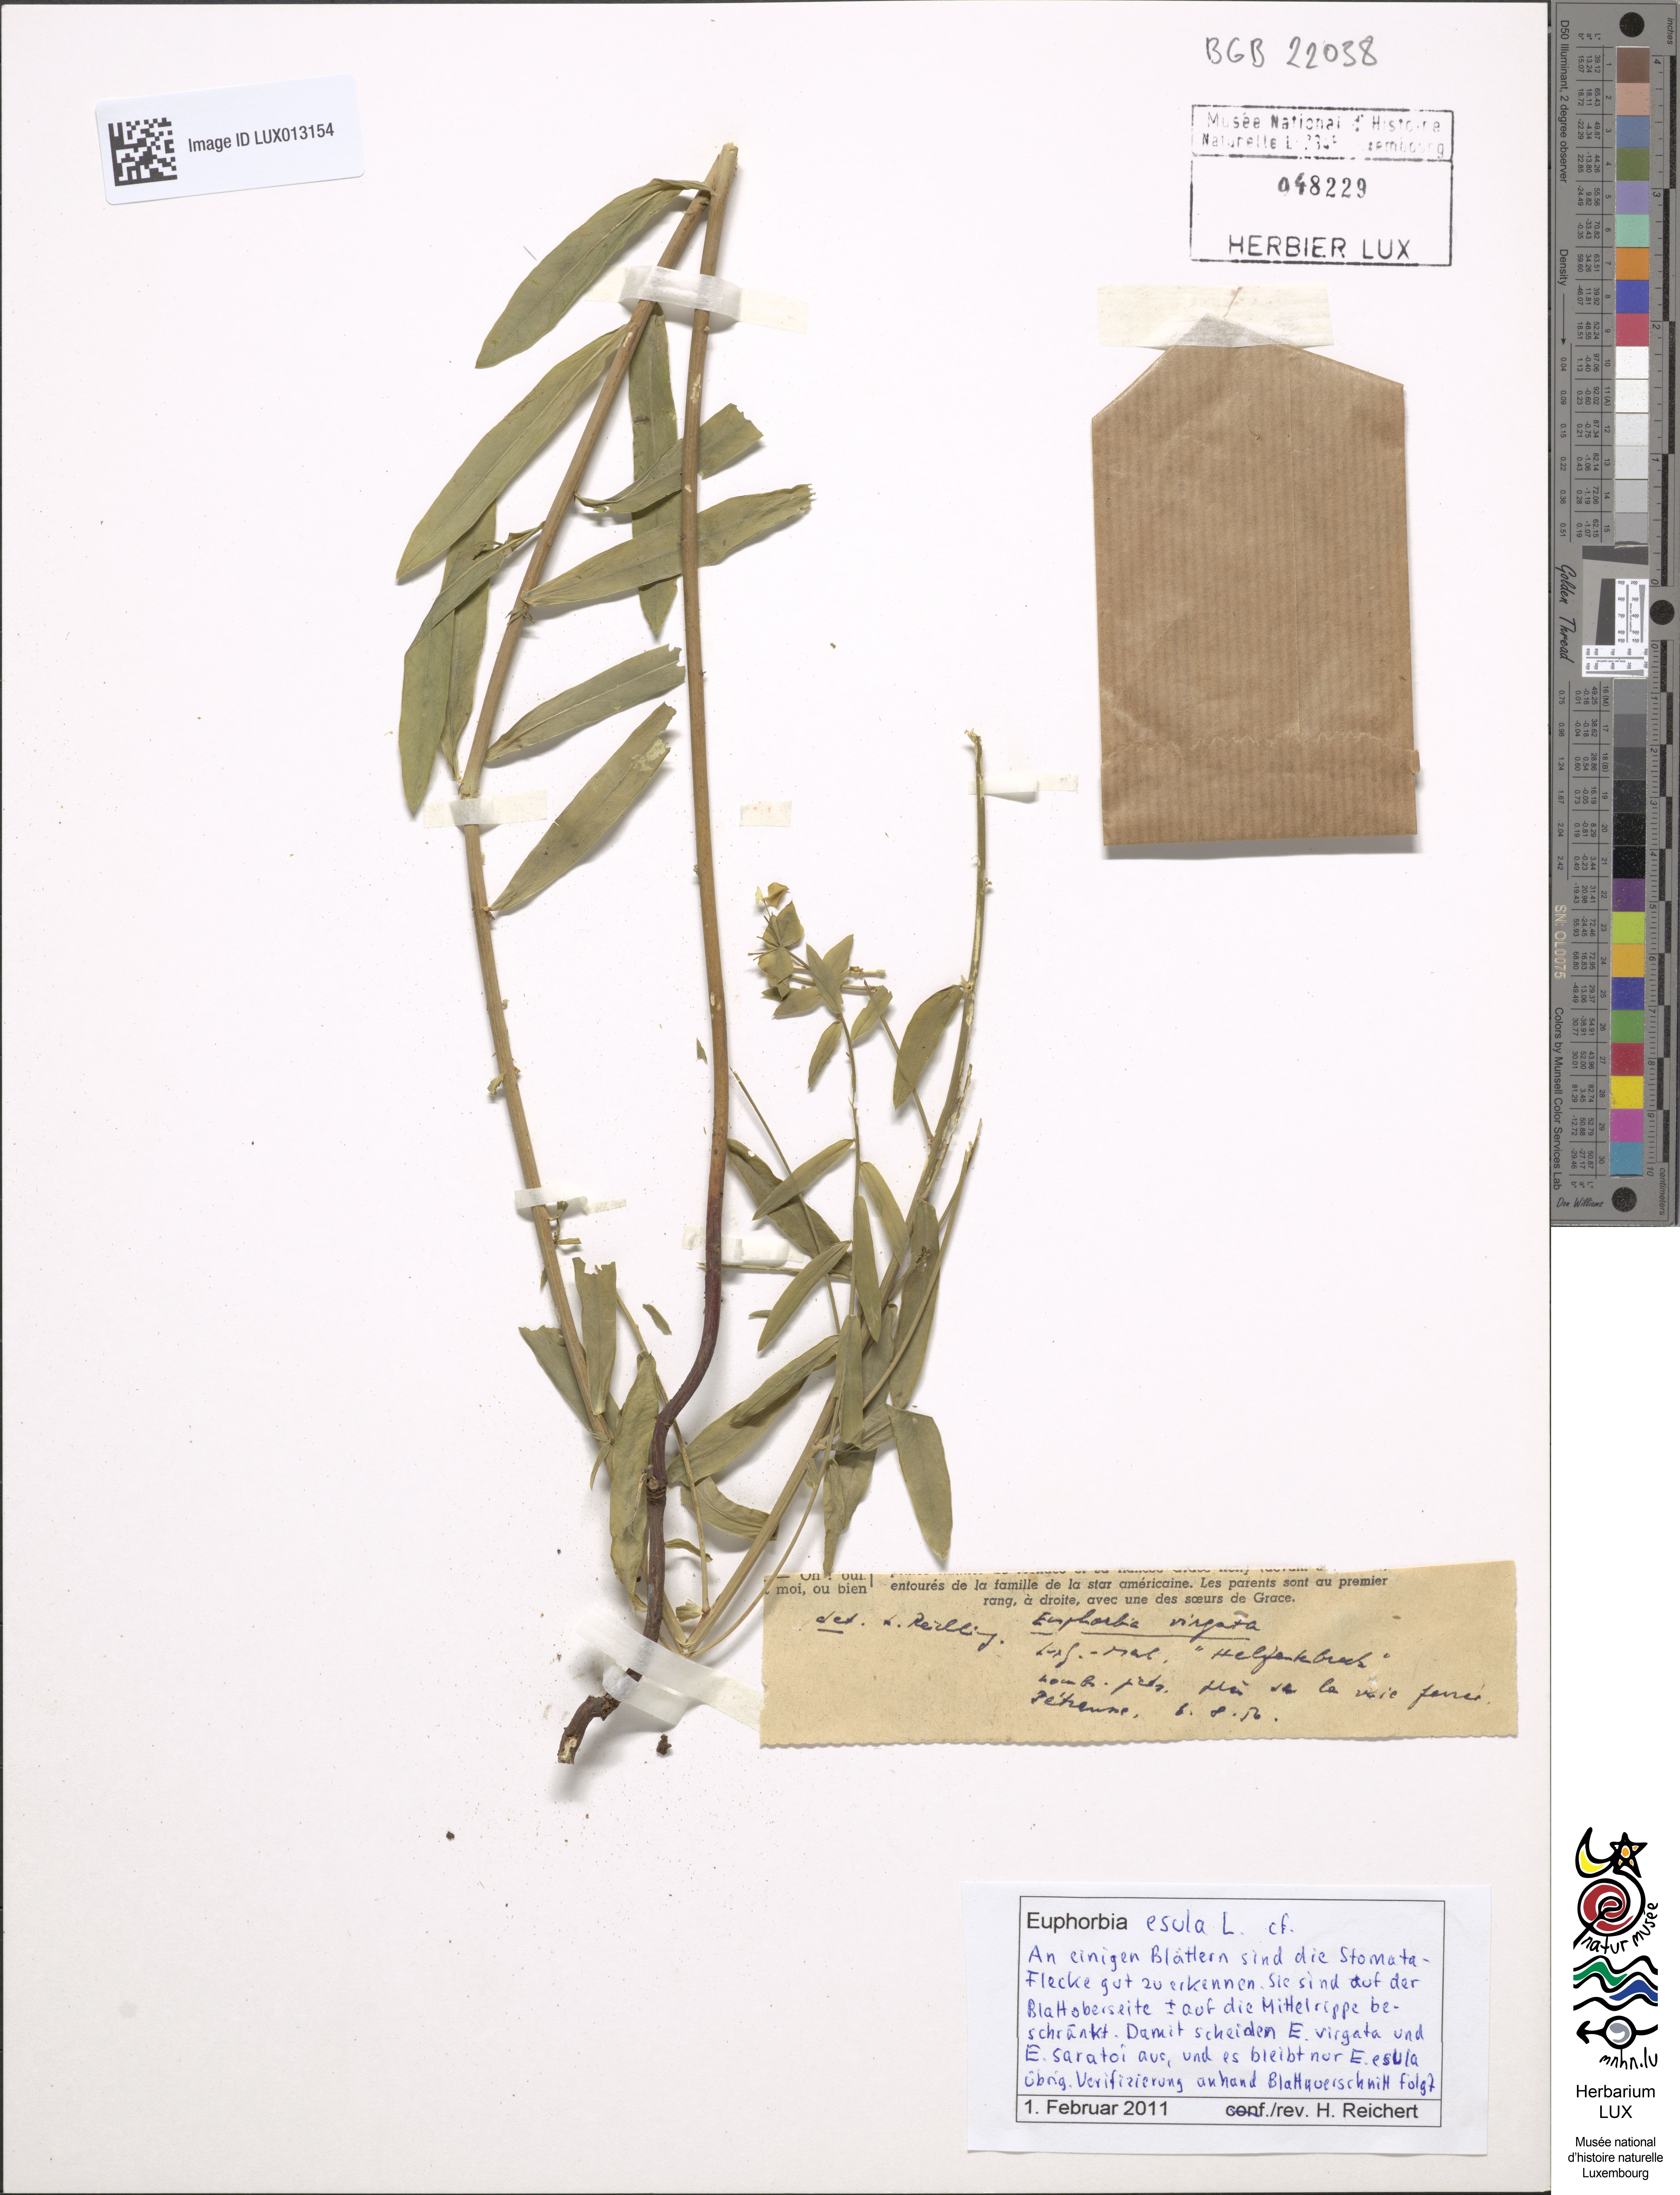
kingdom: Plantae
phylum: Tracheophyta
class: Magnoliopsida
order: Malpighiales
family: Euphorbiaceae
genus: Euphorbia
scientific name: Euphorbia esula
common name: Leafy spurge
